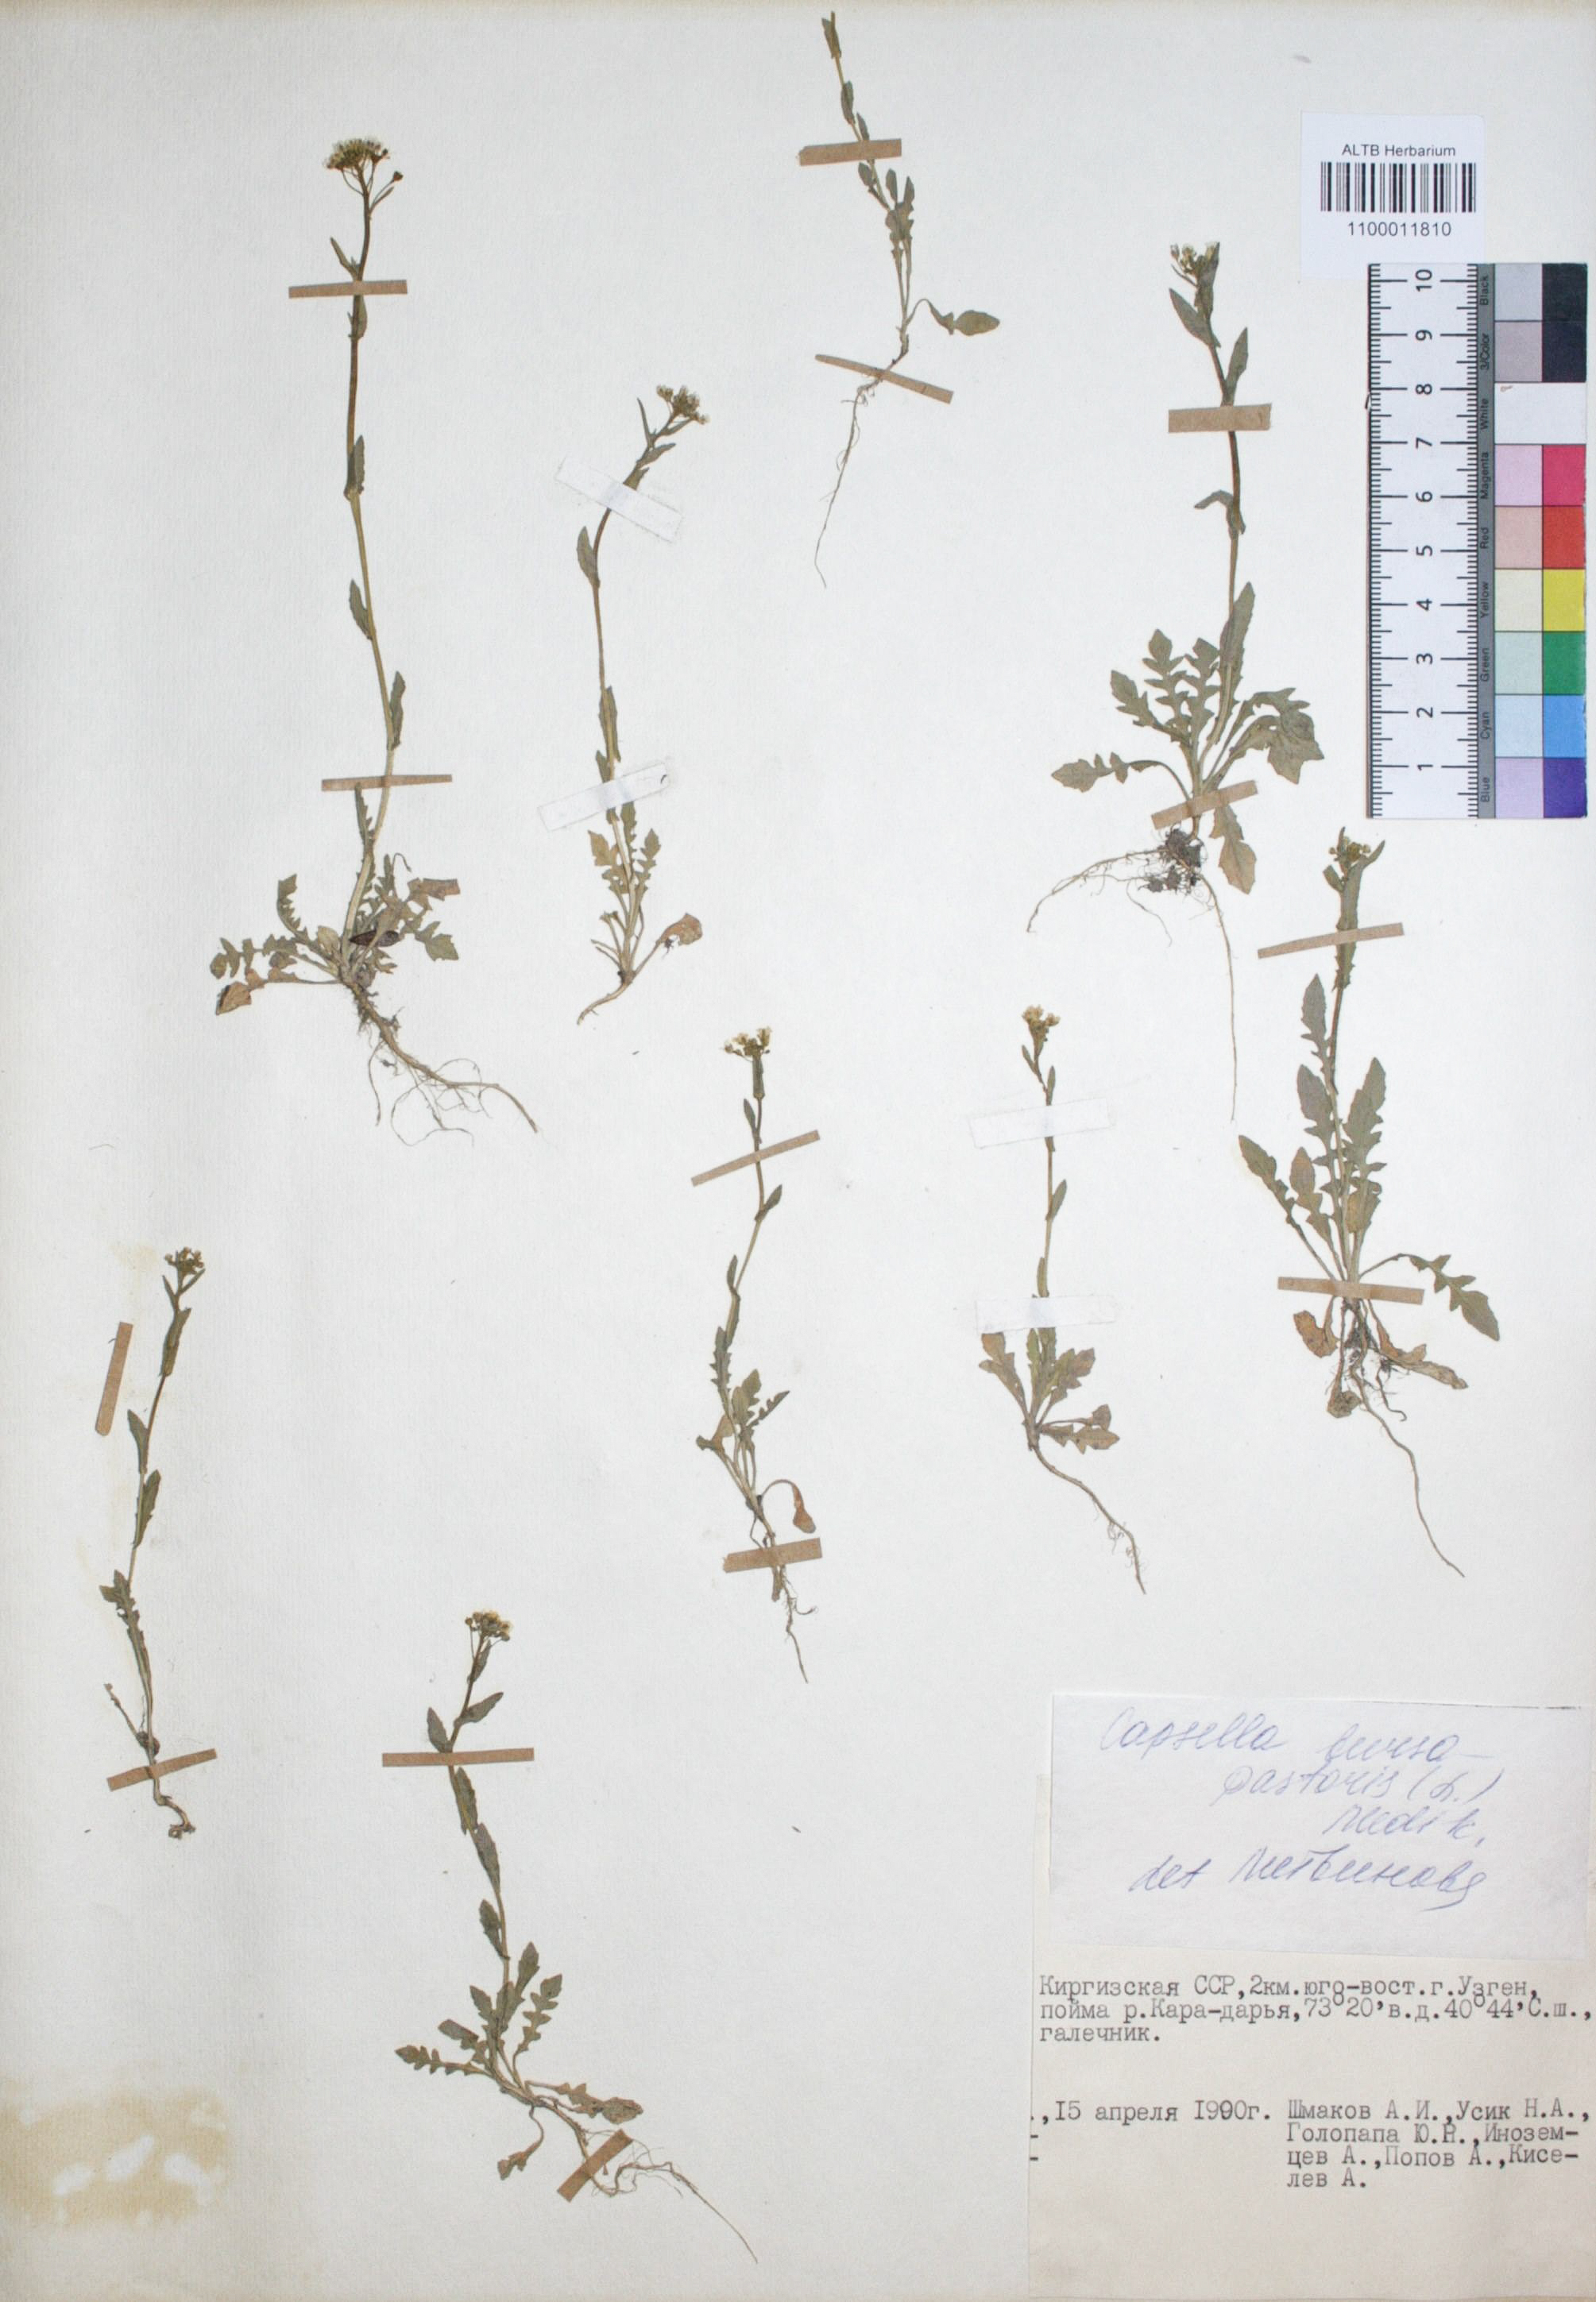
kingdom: Plantae
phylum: Tracheophyta
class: Magnoliopsida
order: Brassicales
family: Brassicaceae
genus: Capsella
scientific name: Capsella bursa-pastoris
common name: Shepherd's purse
